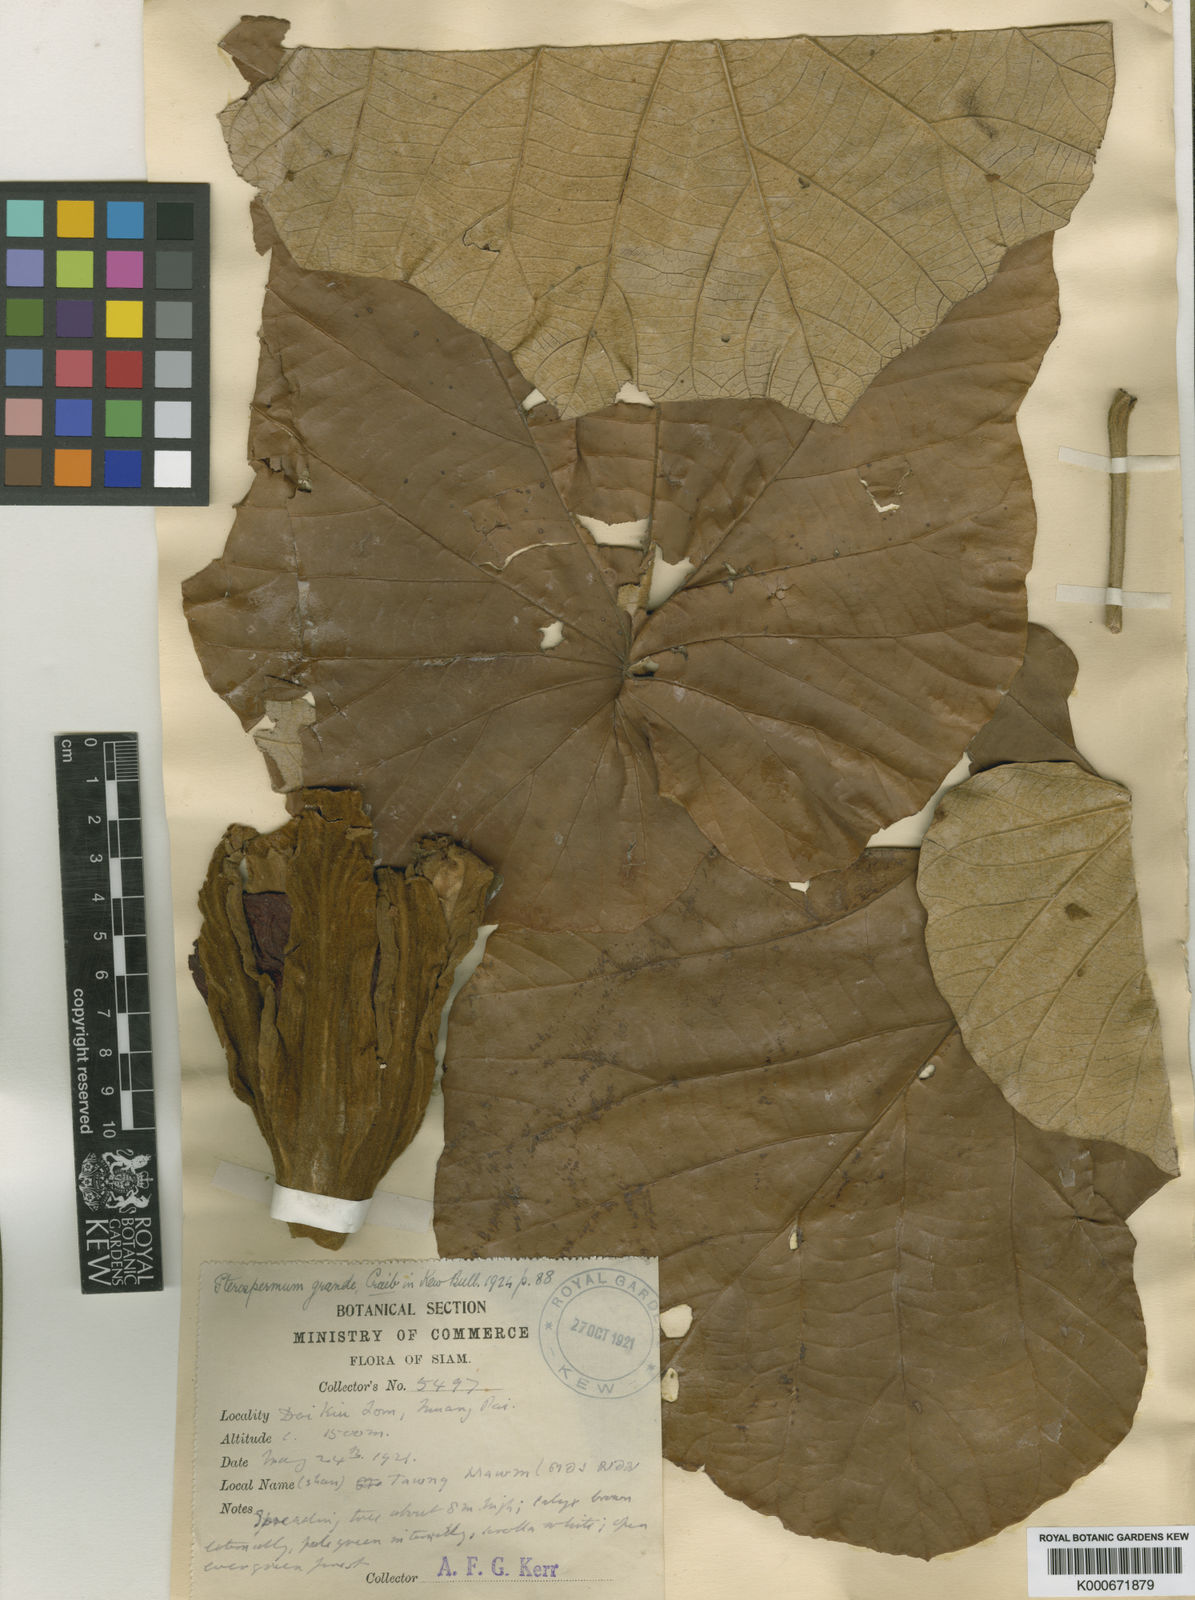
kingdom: Plantae
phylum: Tracheophyta
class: Magnoliopsida
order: Malvales
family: Malvaceae
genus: Pterospermum
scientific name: Pterospermum grande
